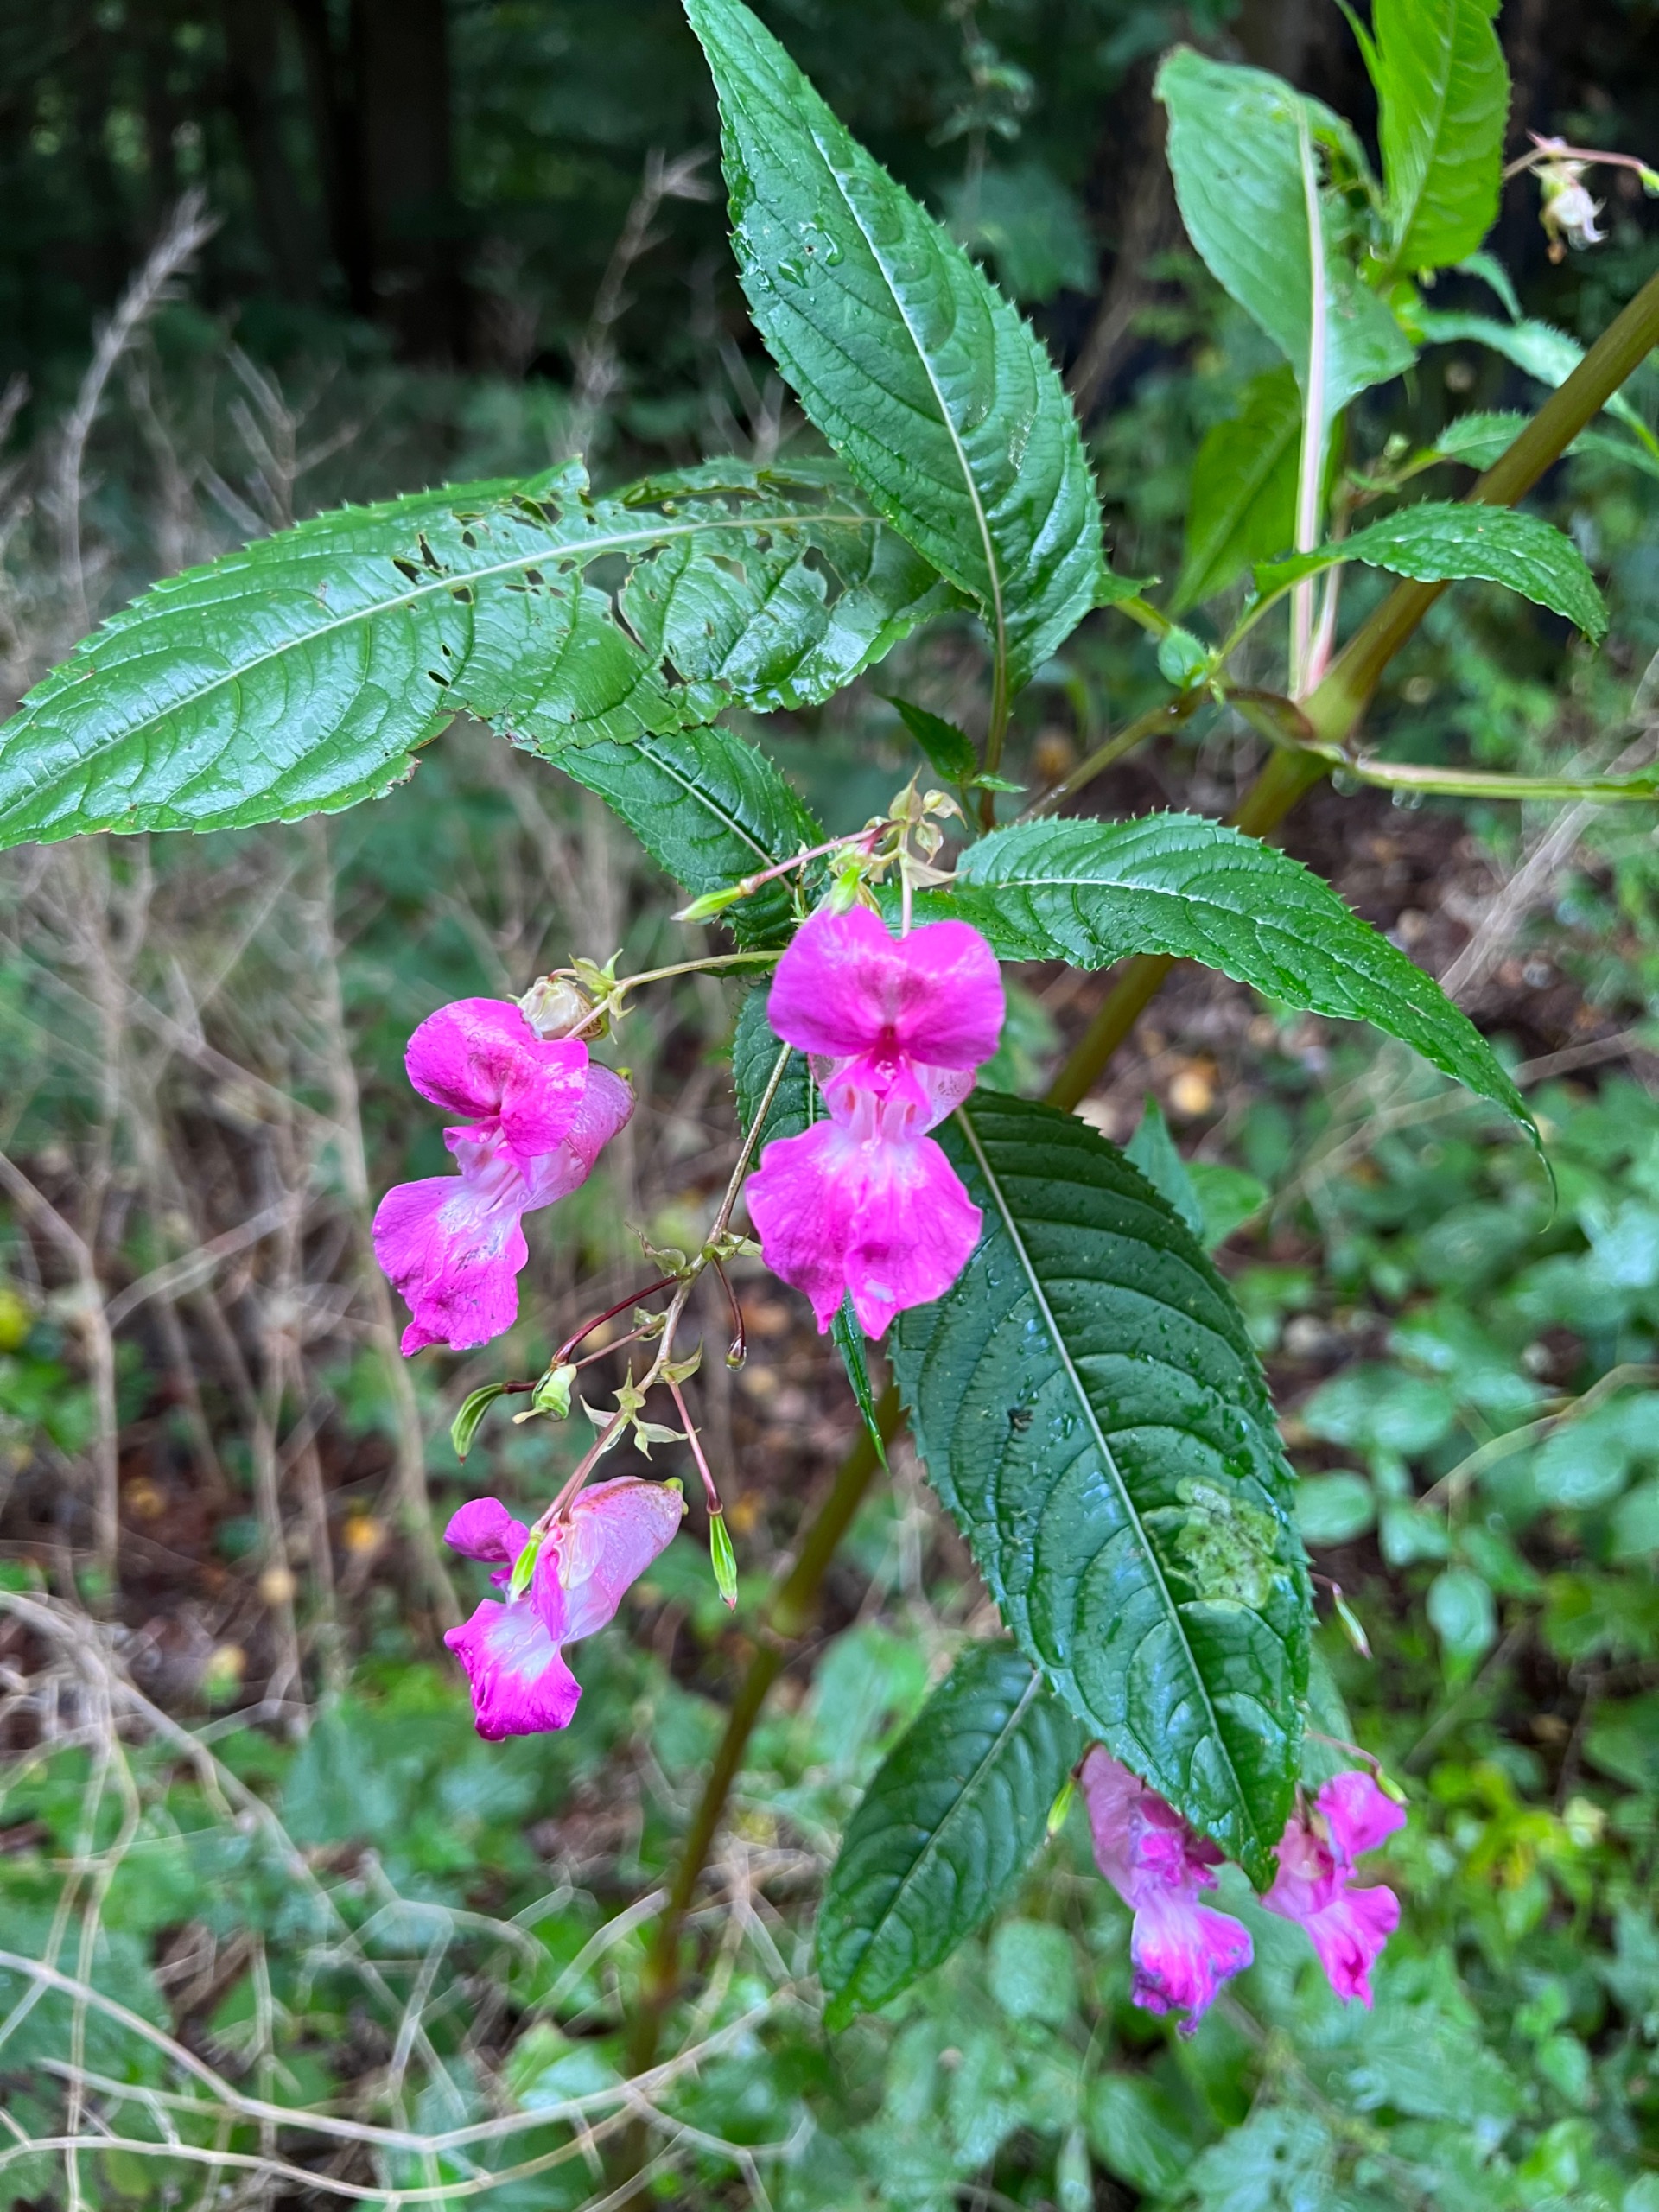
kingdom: Plantae
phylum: Tracheophyta
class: Magnoliopsida
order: Ericales
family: Balsaminaceae
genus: Impatiens
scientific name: Impatiens glandulifera
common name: Kæmpe-balsamin
